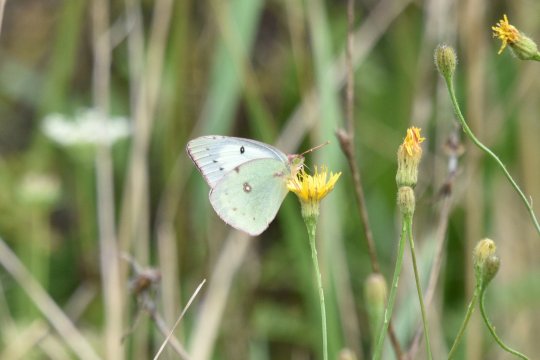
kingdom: Animalia
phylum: Arthropoda
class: Insecta
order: Lepidoptera
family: Pieridae
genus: Colias
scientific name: Colias philodice
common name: Clouded Sulphur
